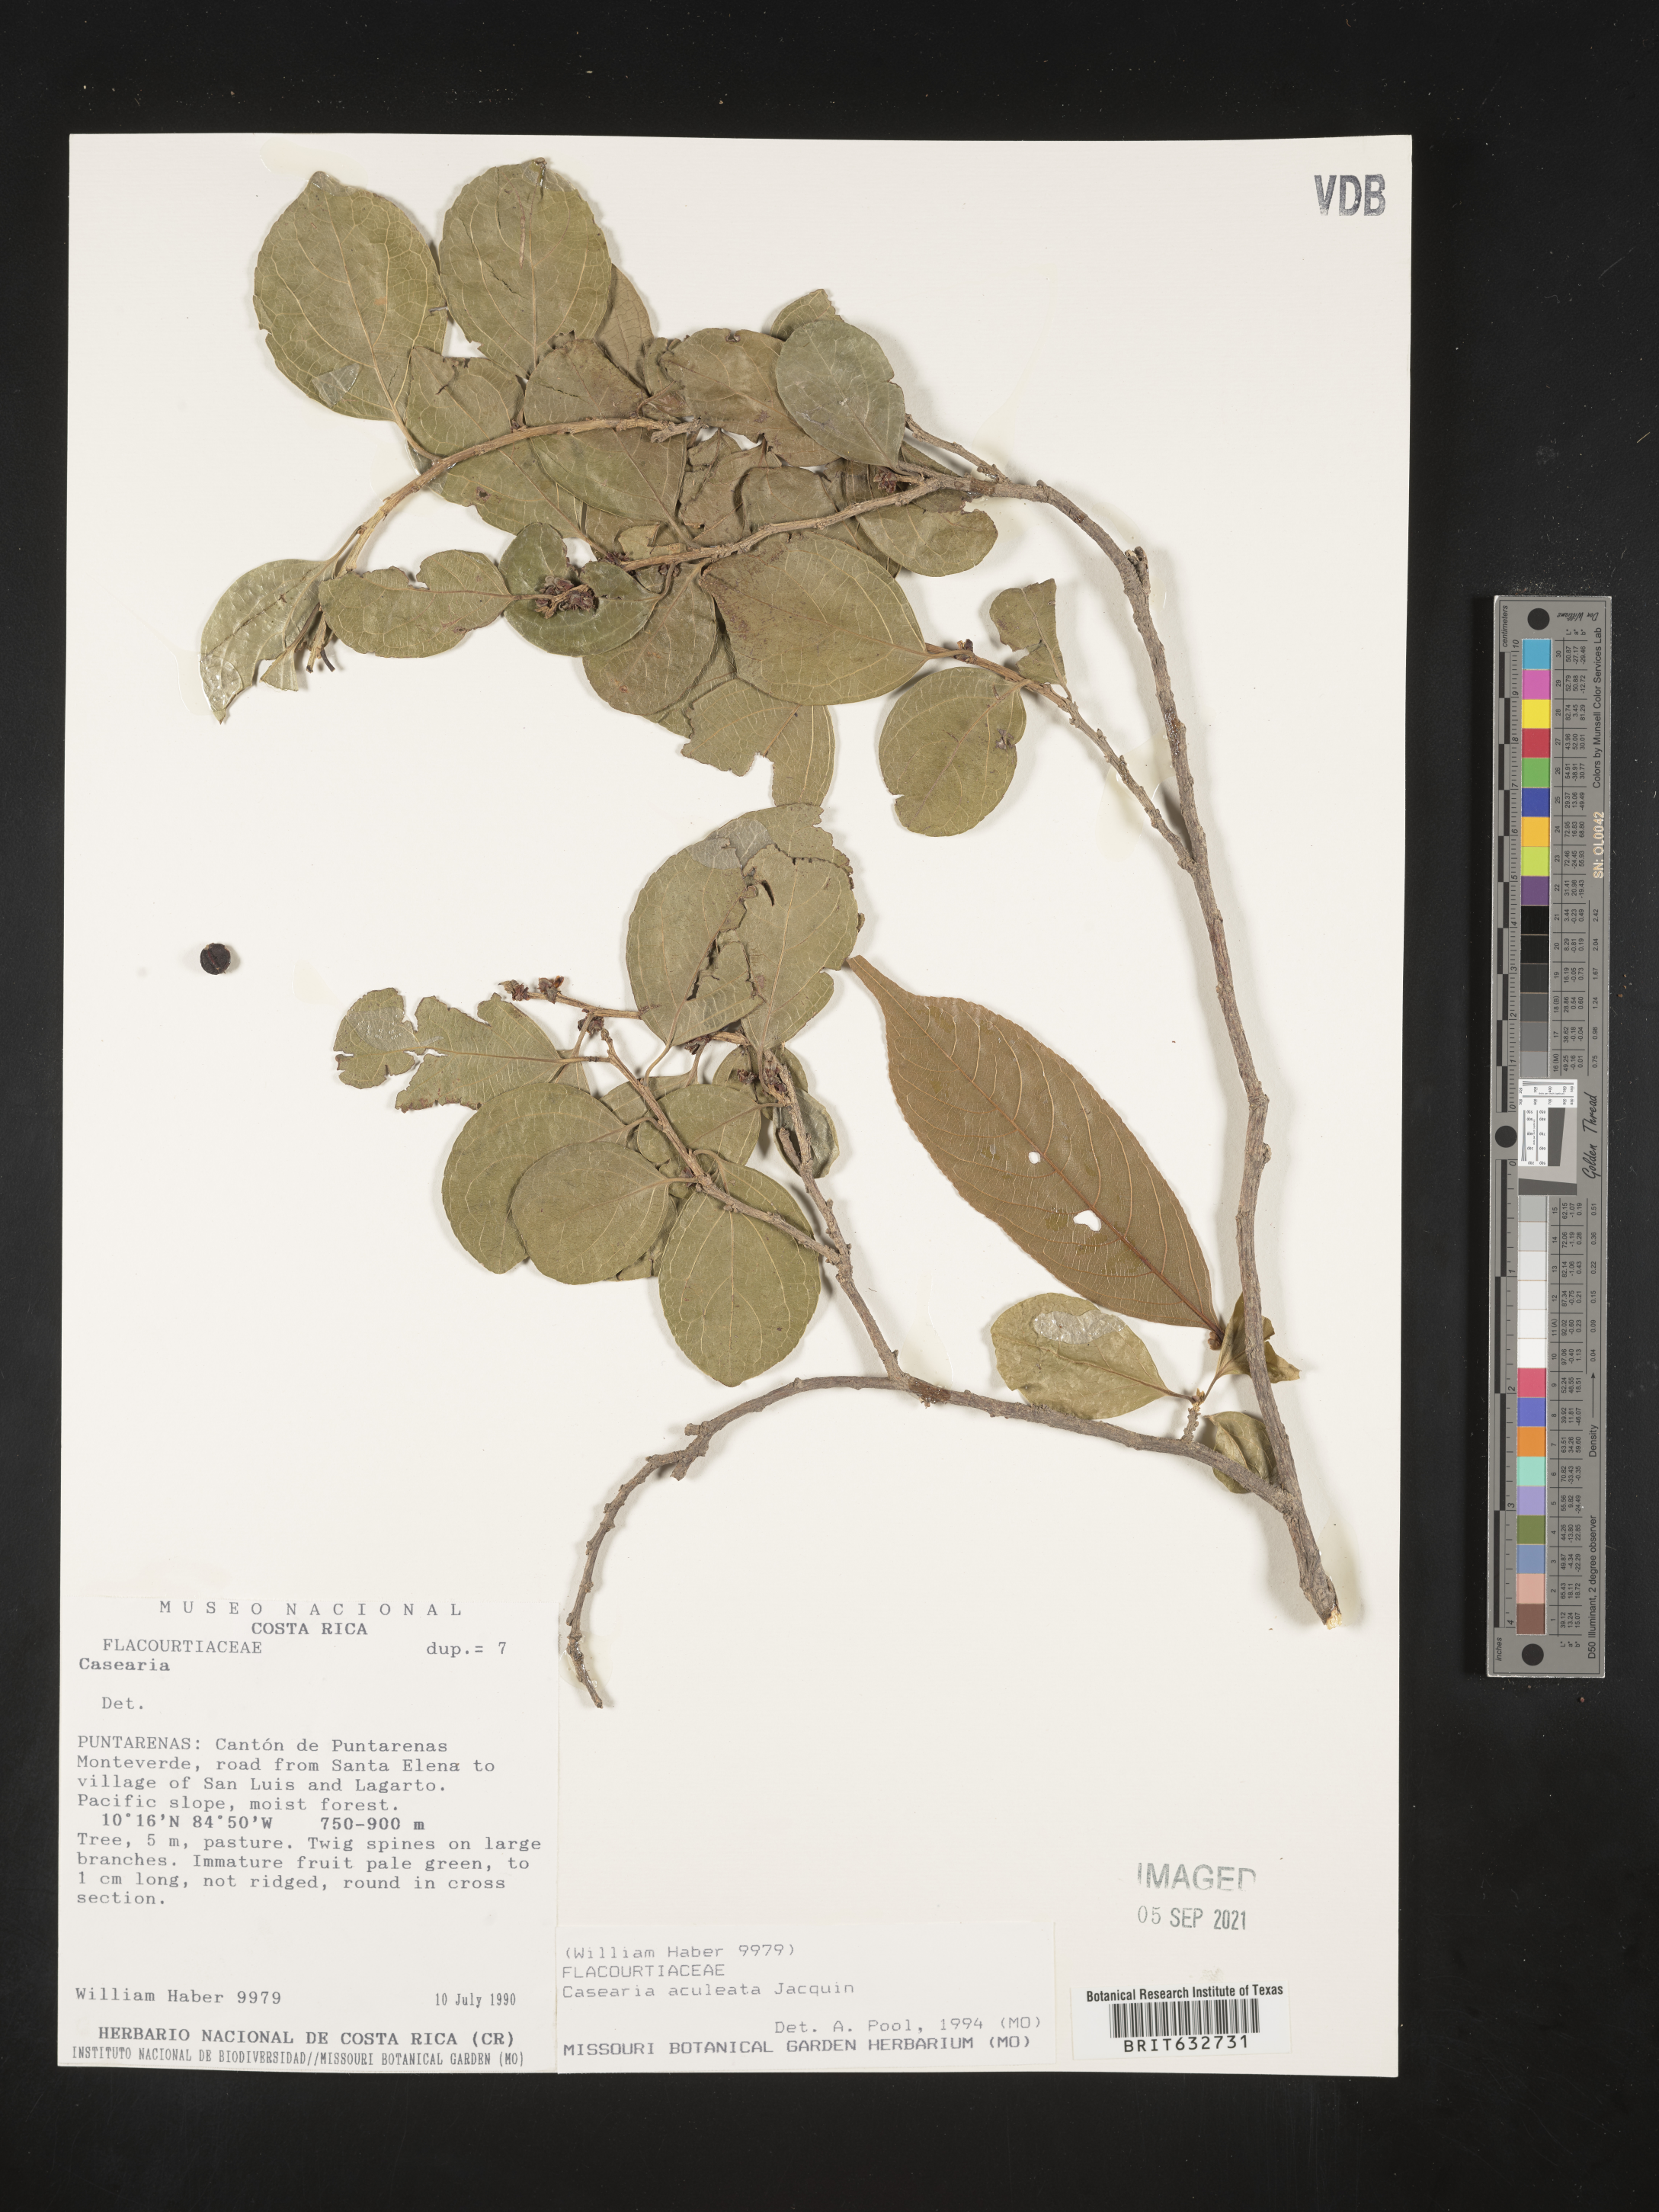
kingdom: Plantae
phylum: Tracheophyta
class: Magnoliopsida
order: Malpighiales
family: Salicaceae
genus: Casearia
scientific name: Casearia
